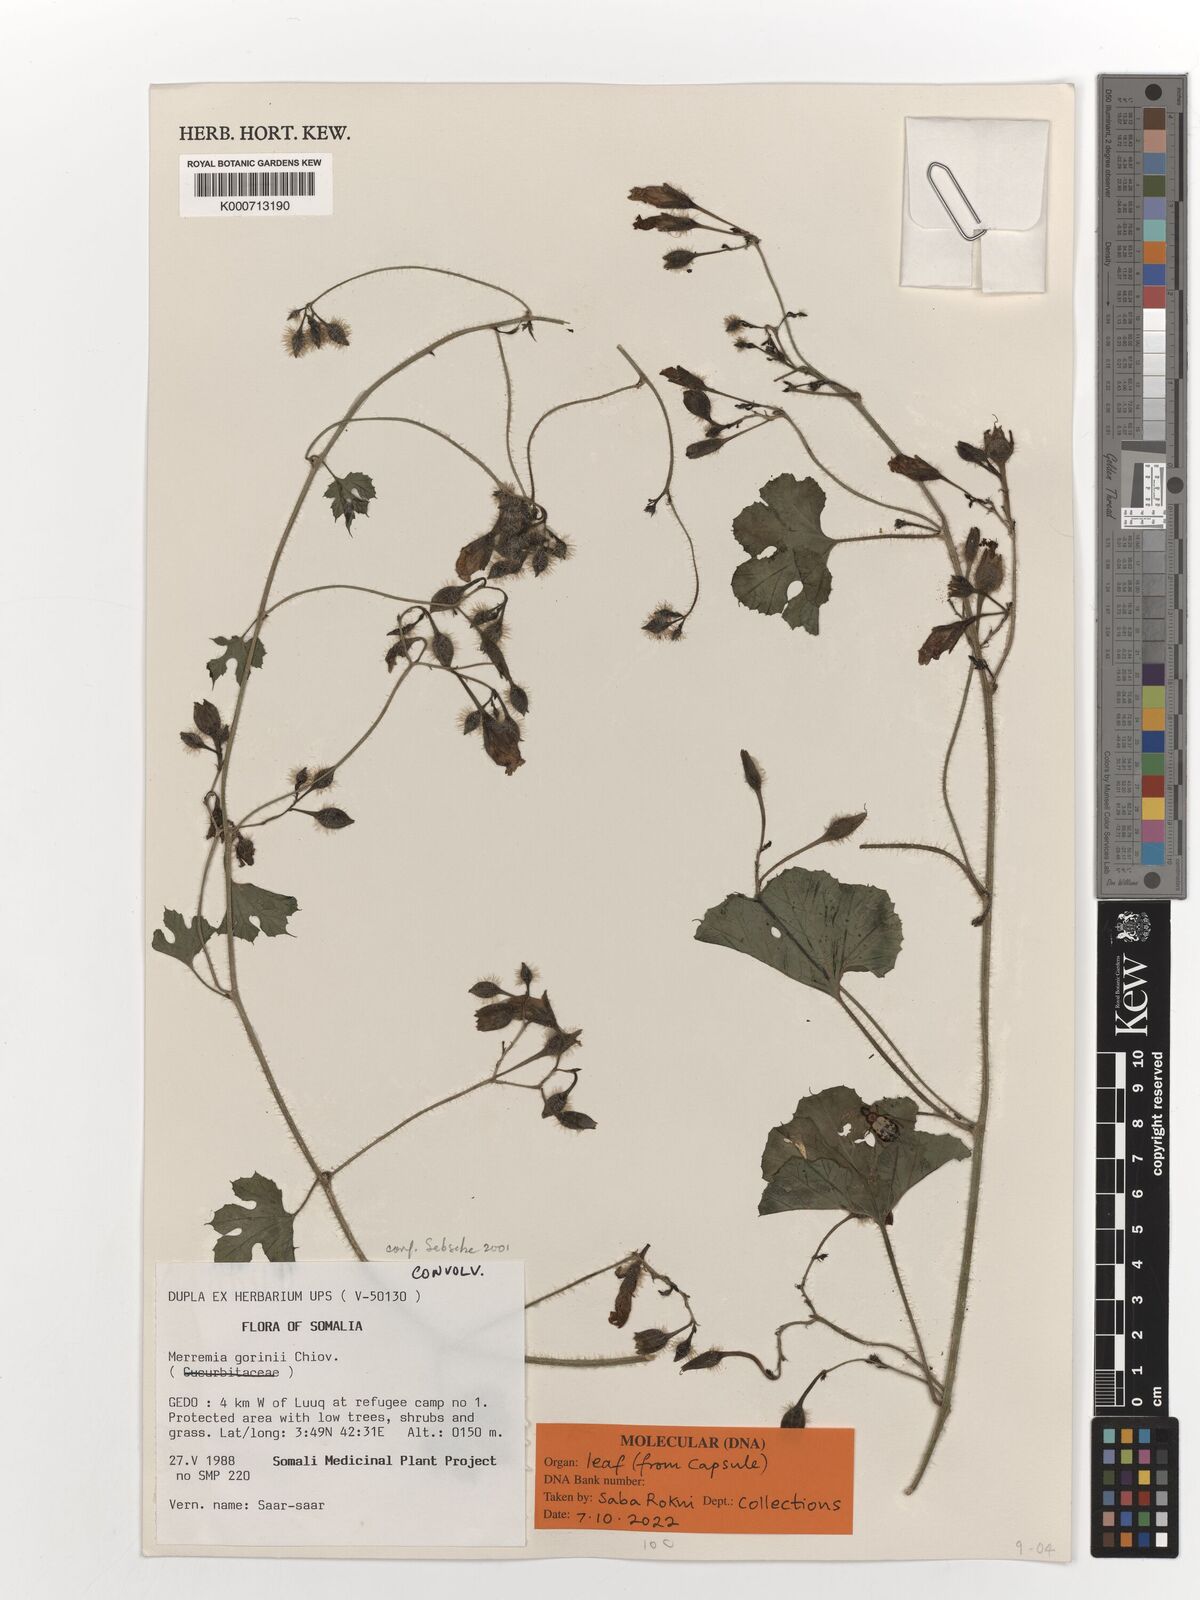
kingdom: Plantae
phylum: Tracheophyta
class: Magnoliopsida
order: Solanales
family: Convolvulaceae
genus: Merremia
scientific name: Merremia gorinii
